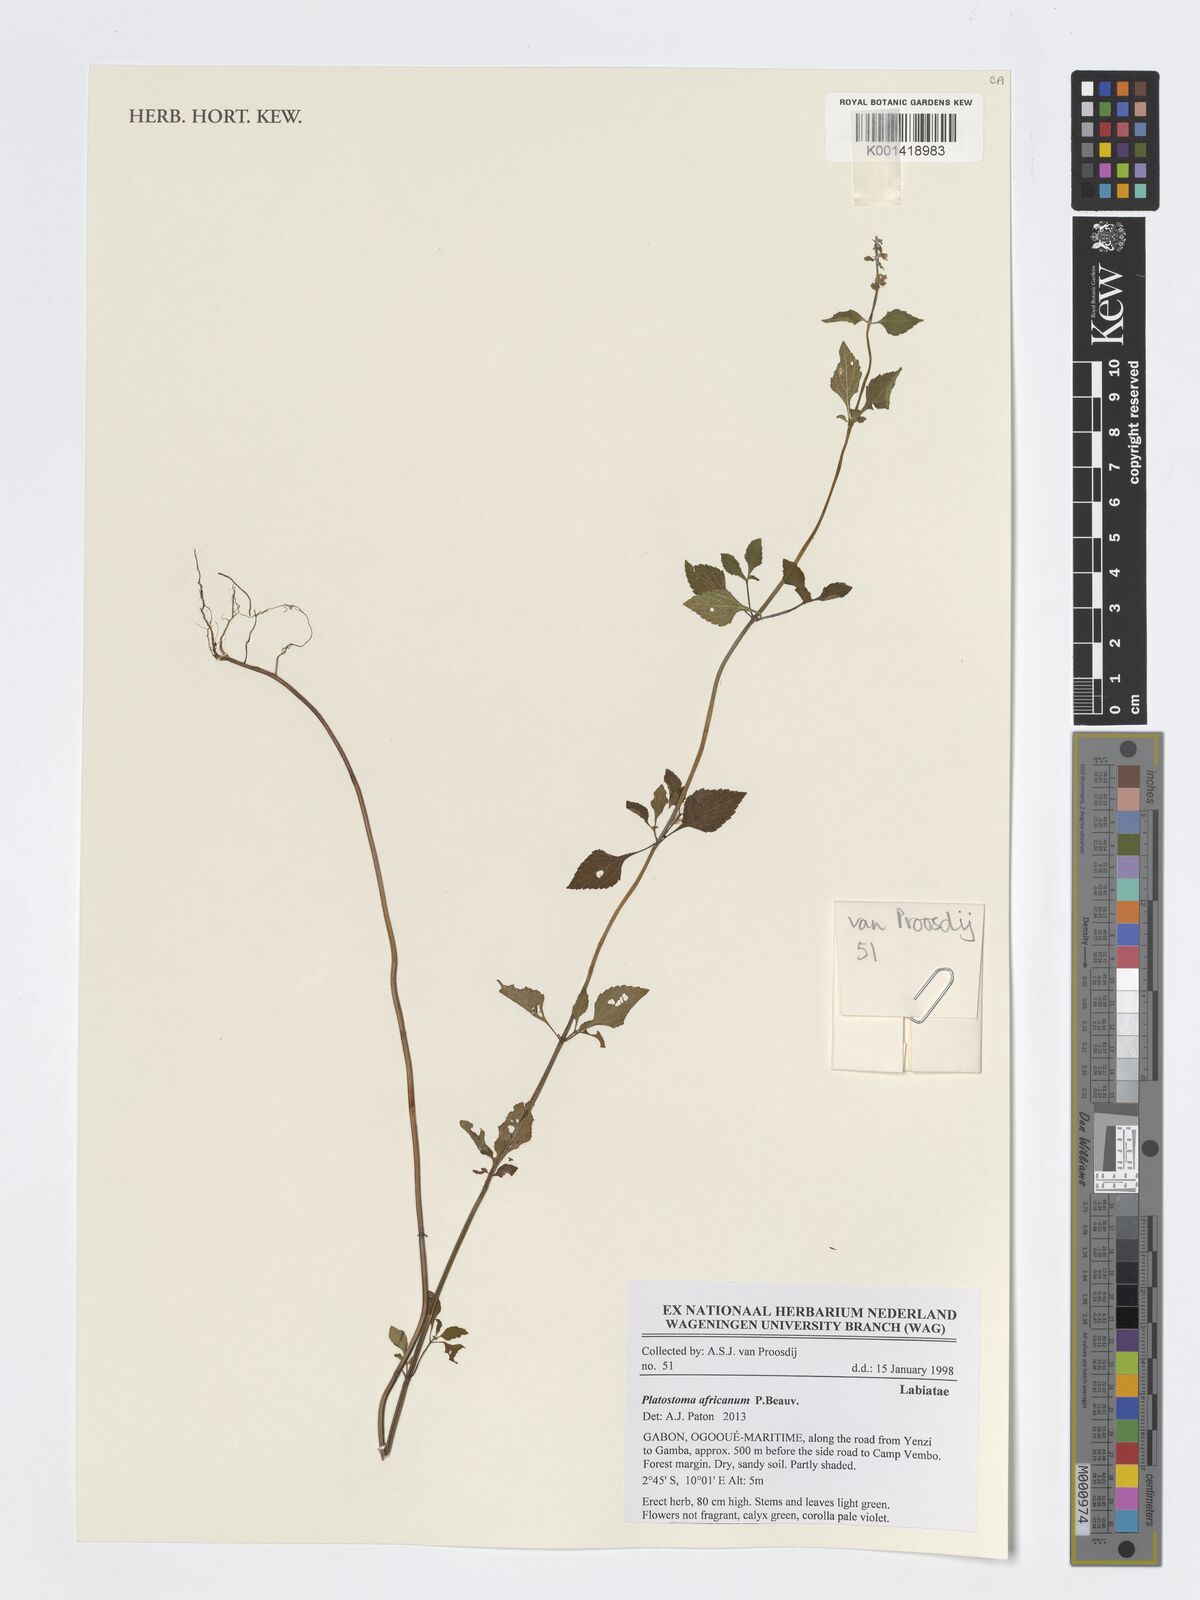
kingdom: Plantae
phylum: Tracheophyta
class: Magnoliopsida
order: Lamiales
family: Lamiaceae
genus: Platostoma
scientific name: Platostoma africanum
